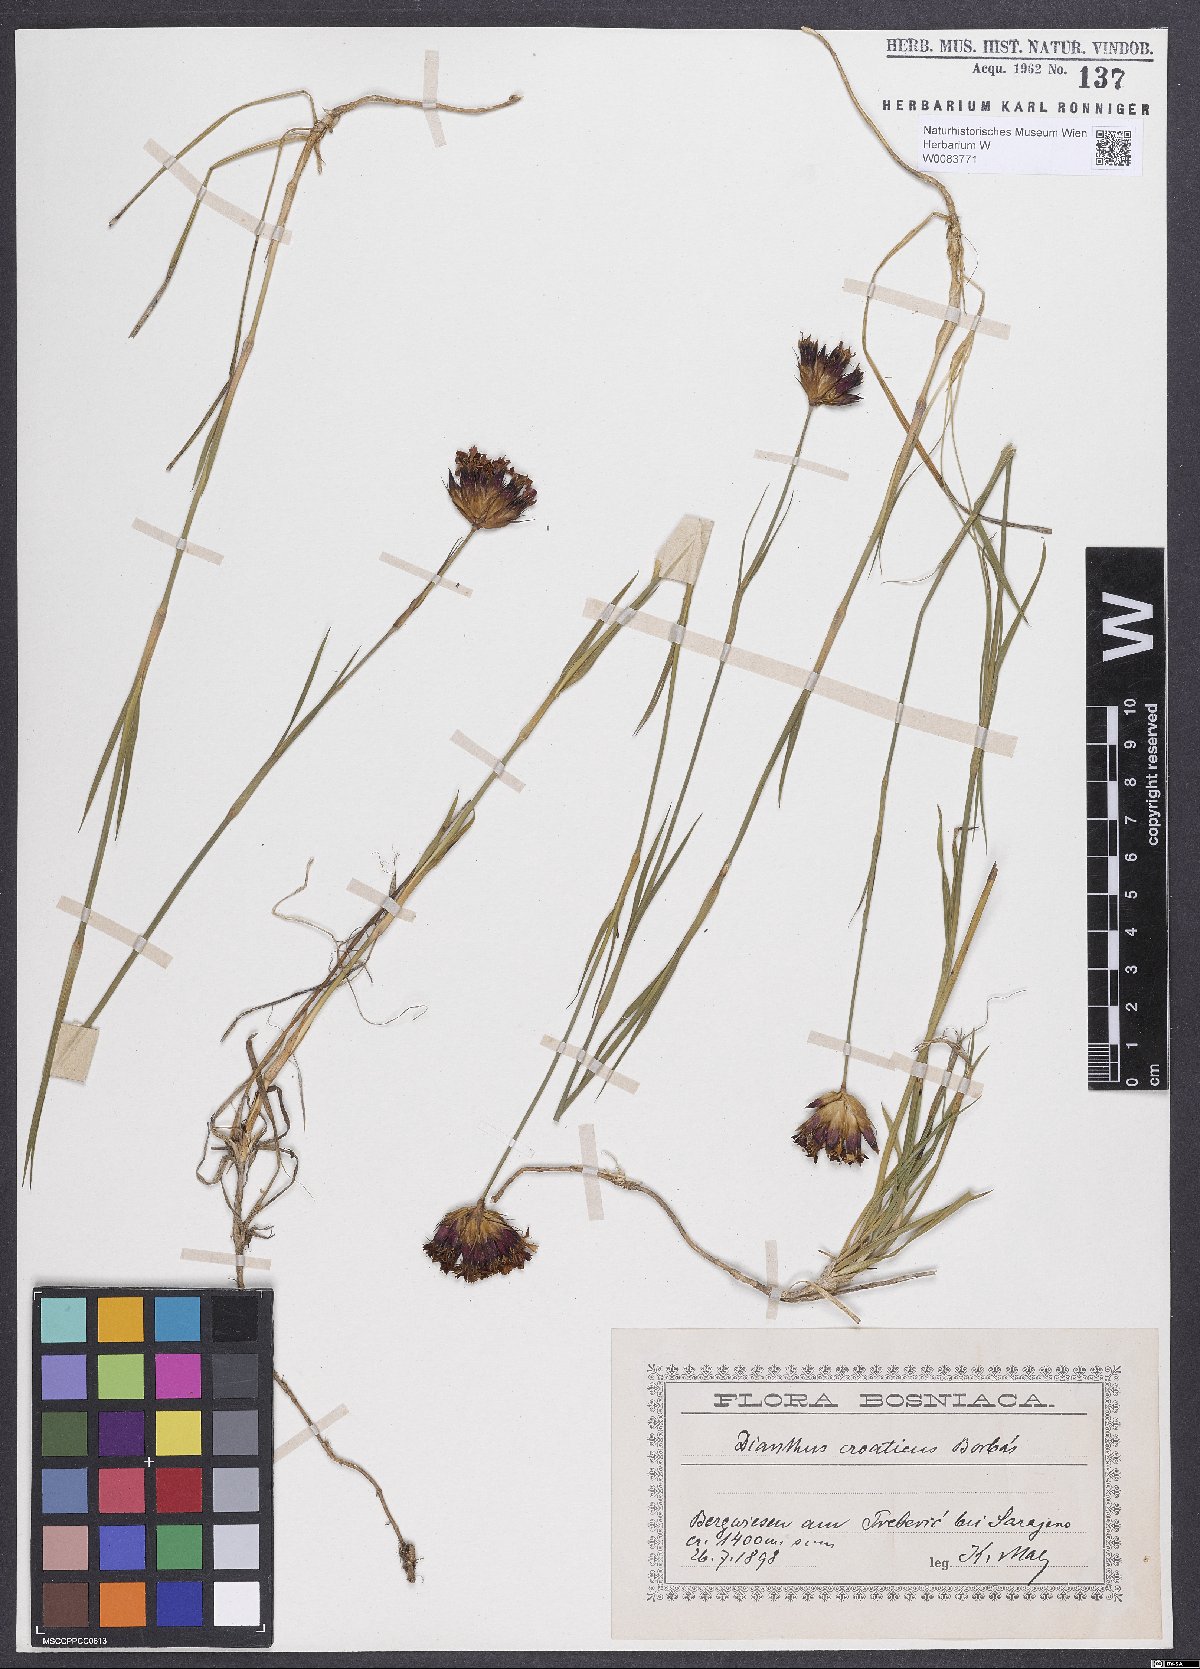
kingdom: Plantae
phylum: Tracheophyta
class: Magnoliopsida
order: Caryophyllales
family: Caryophyllaceae
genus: Dianthus
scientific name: Dianthus giganteus
